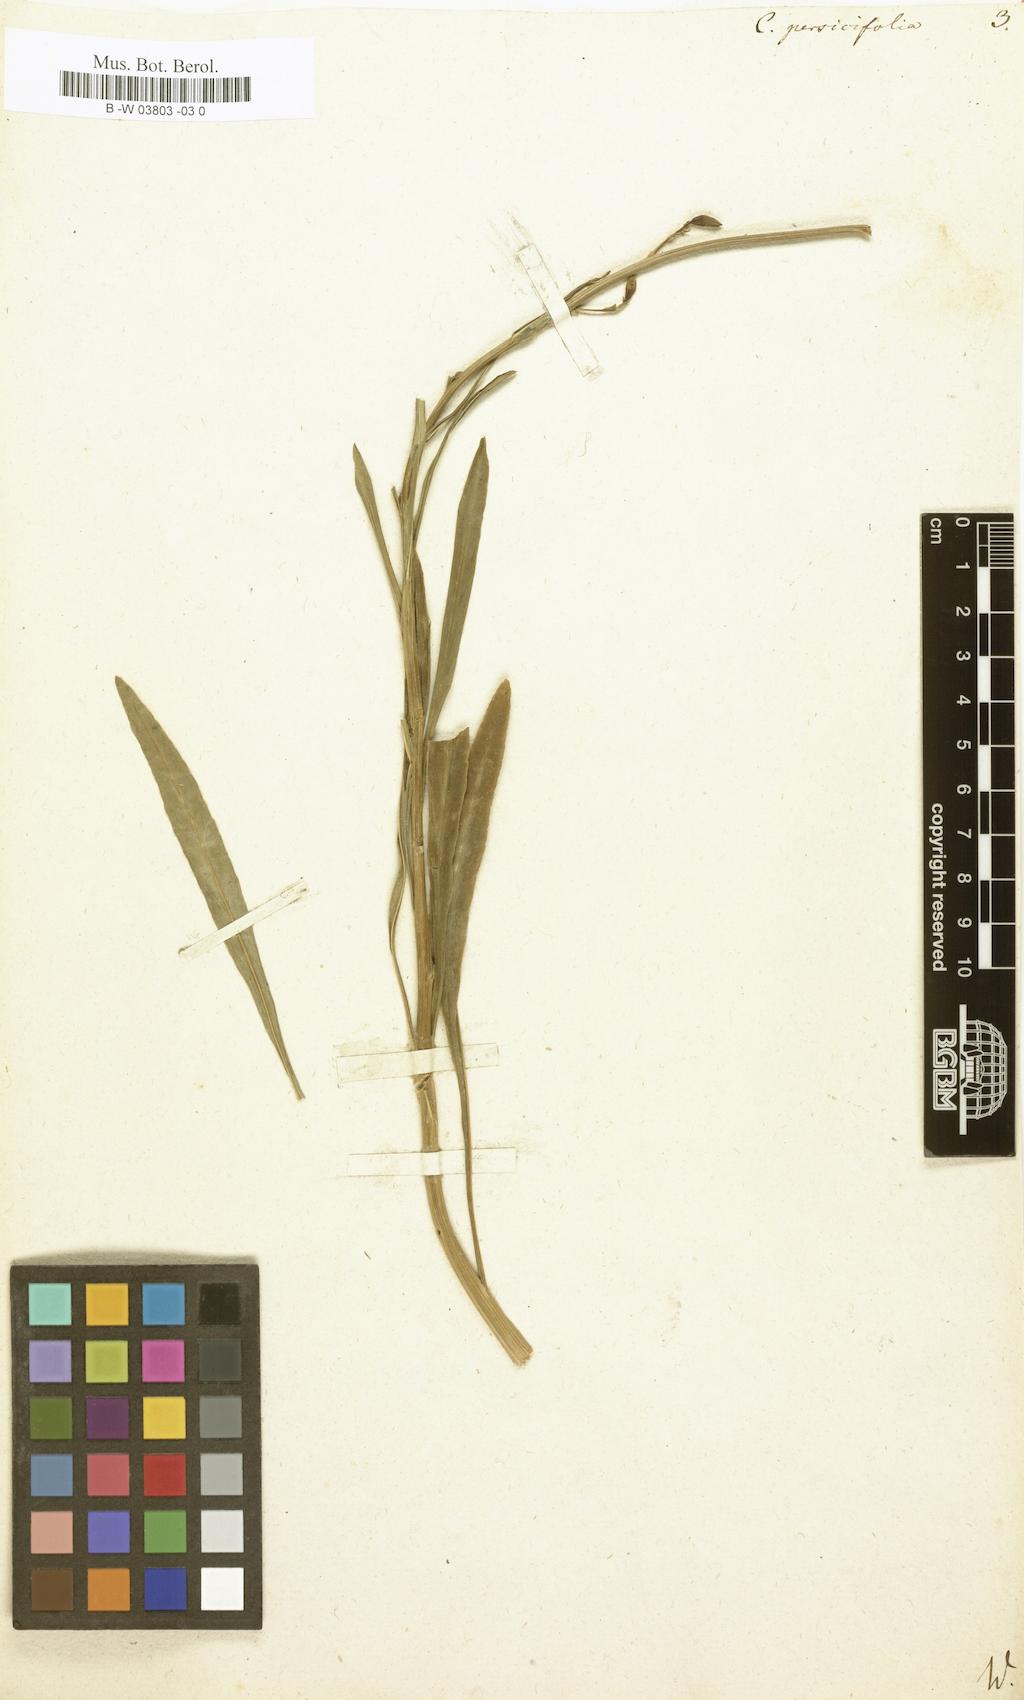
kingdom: Plantae
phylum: Tracheophyta
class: Magnoliopsida
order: Asterales
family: Campanulaceae
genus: Campanula
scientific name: Campanula persicifolia
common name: Peach-leaved bellflower
